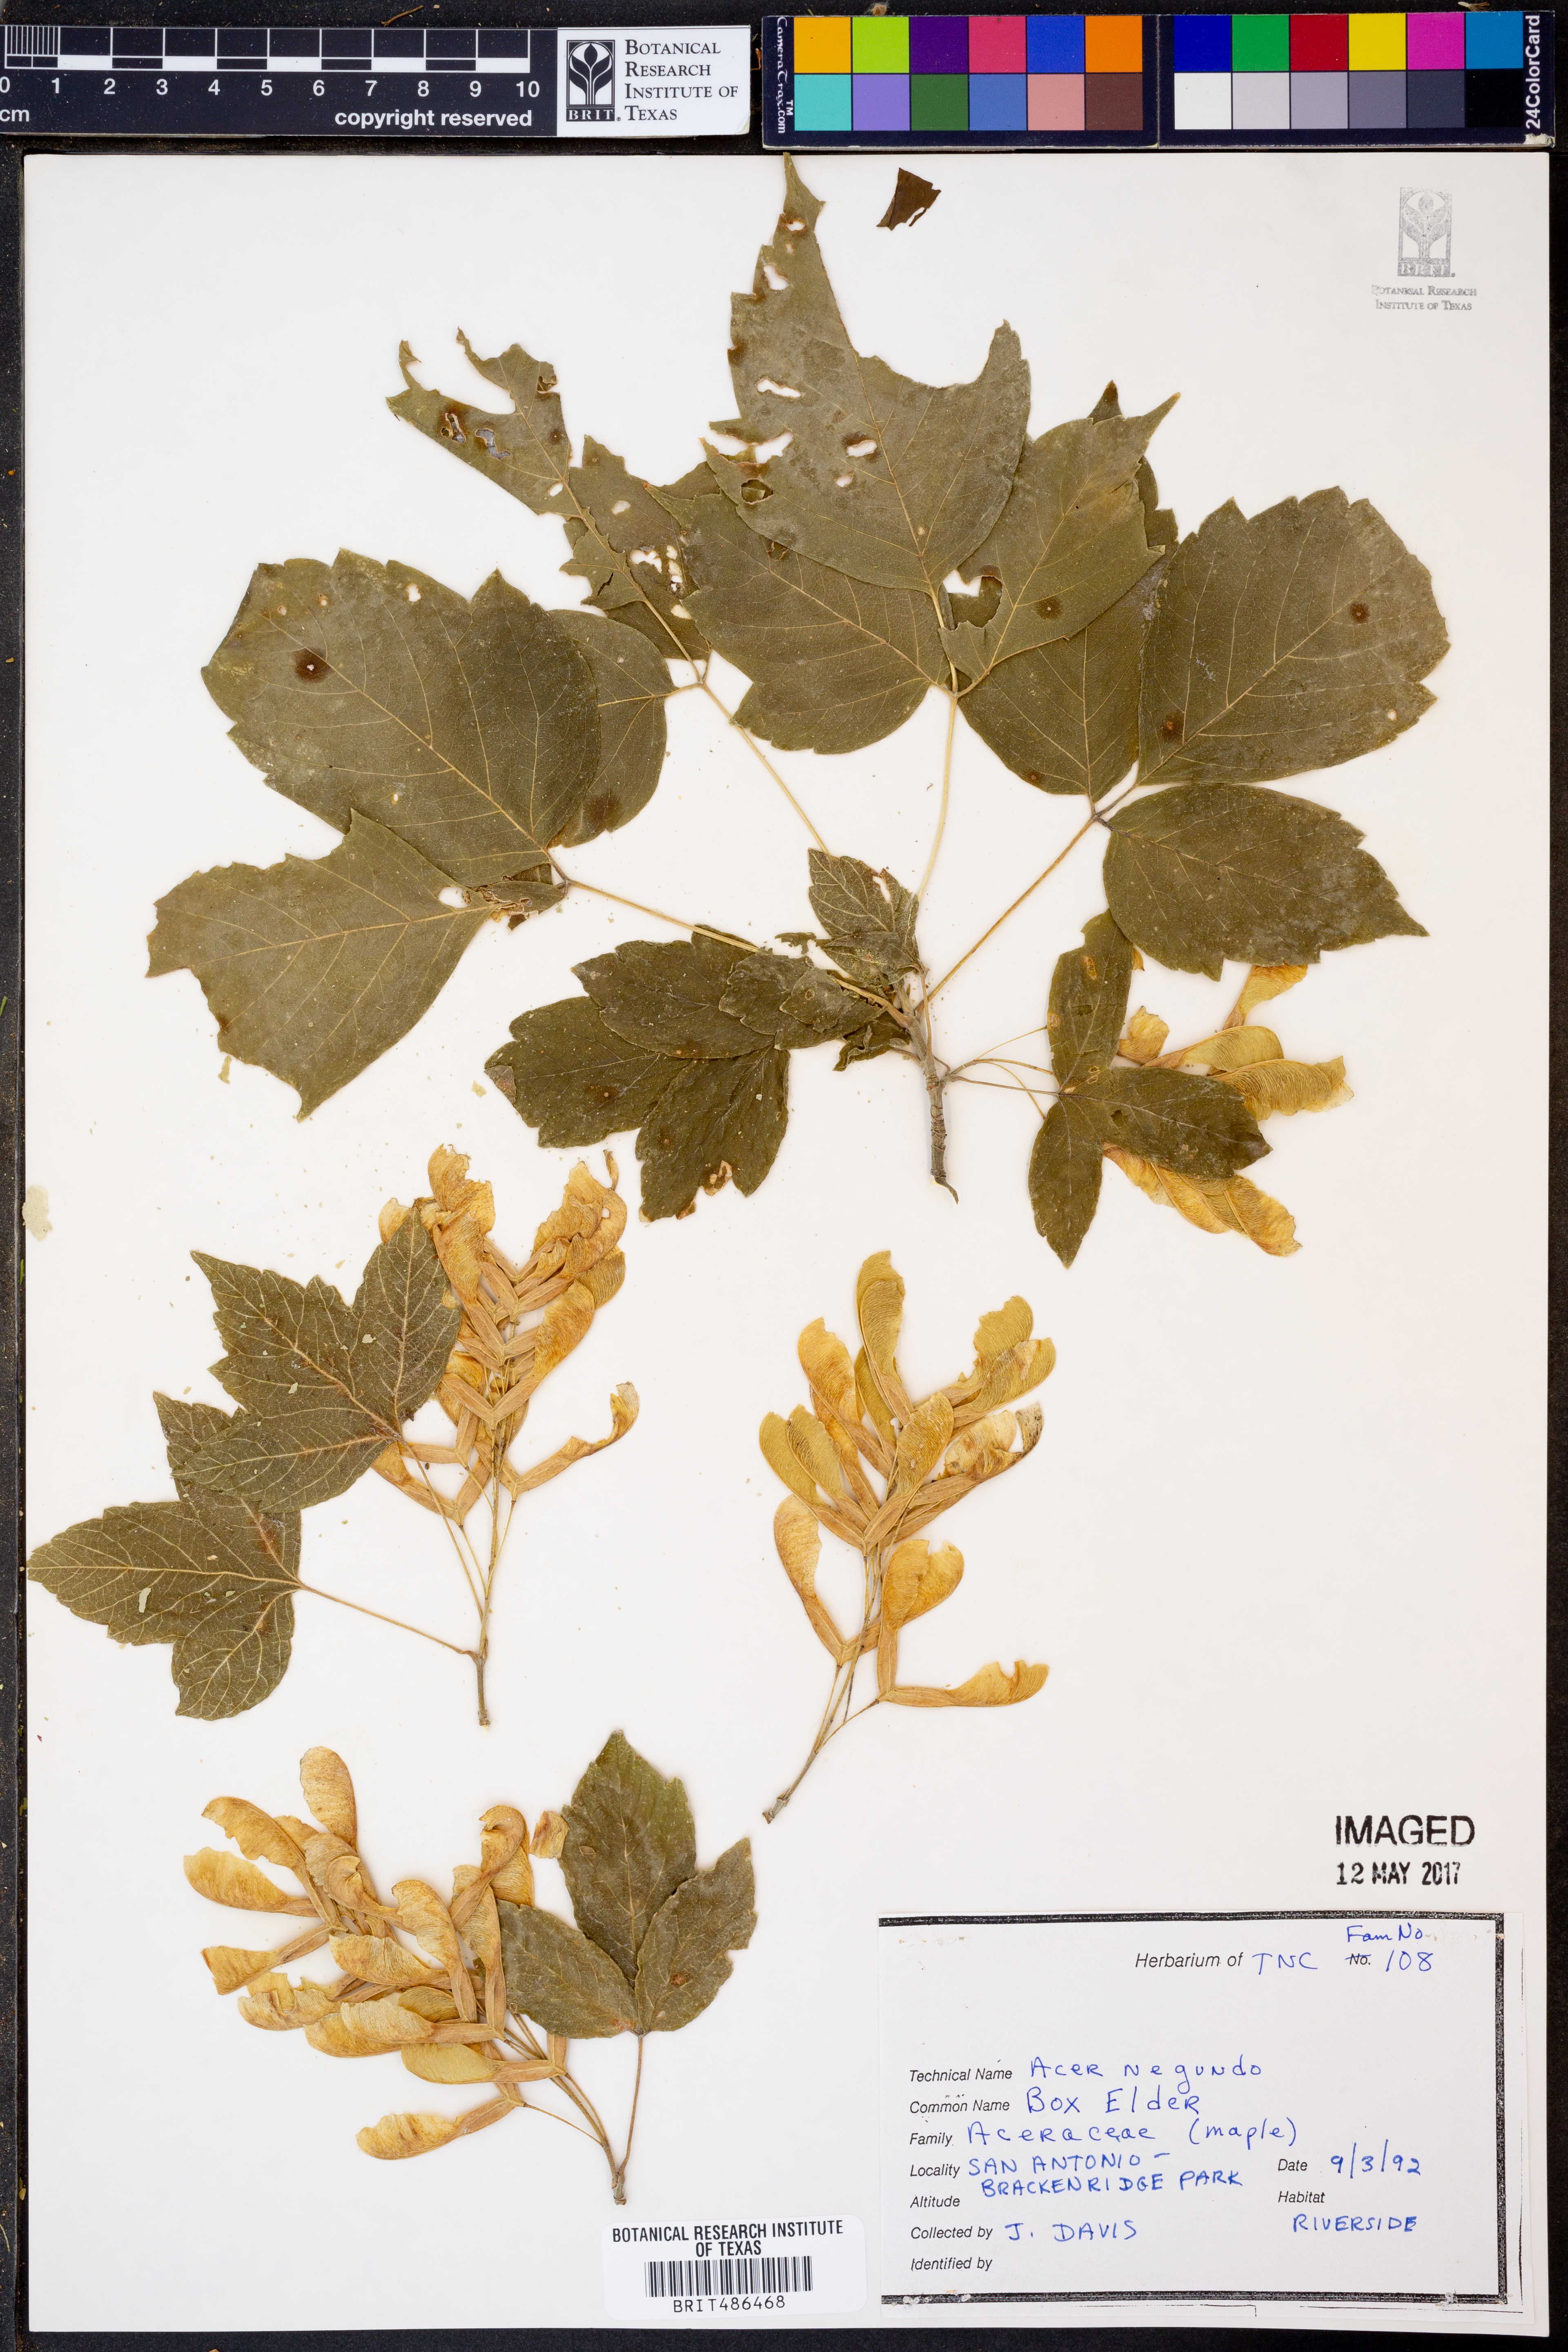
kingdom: Plantae
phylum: Tracheophyta
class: Magnoliopsida
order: Sapindales
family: Sapindaceae
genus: Acer
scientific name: Acer negundo
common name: Ashleaf maple
